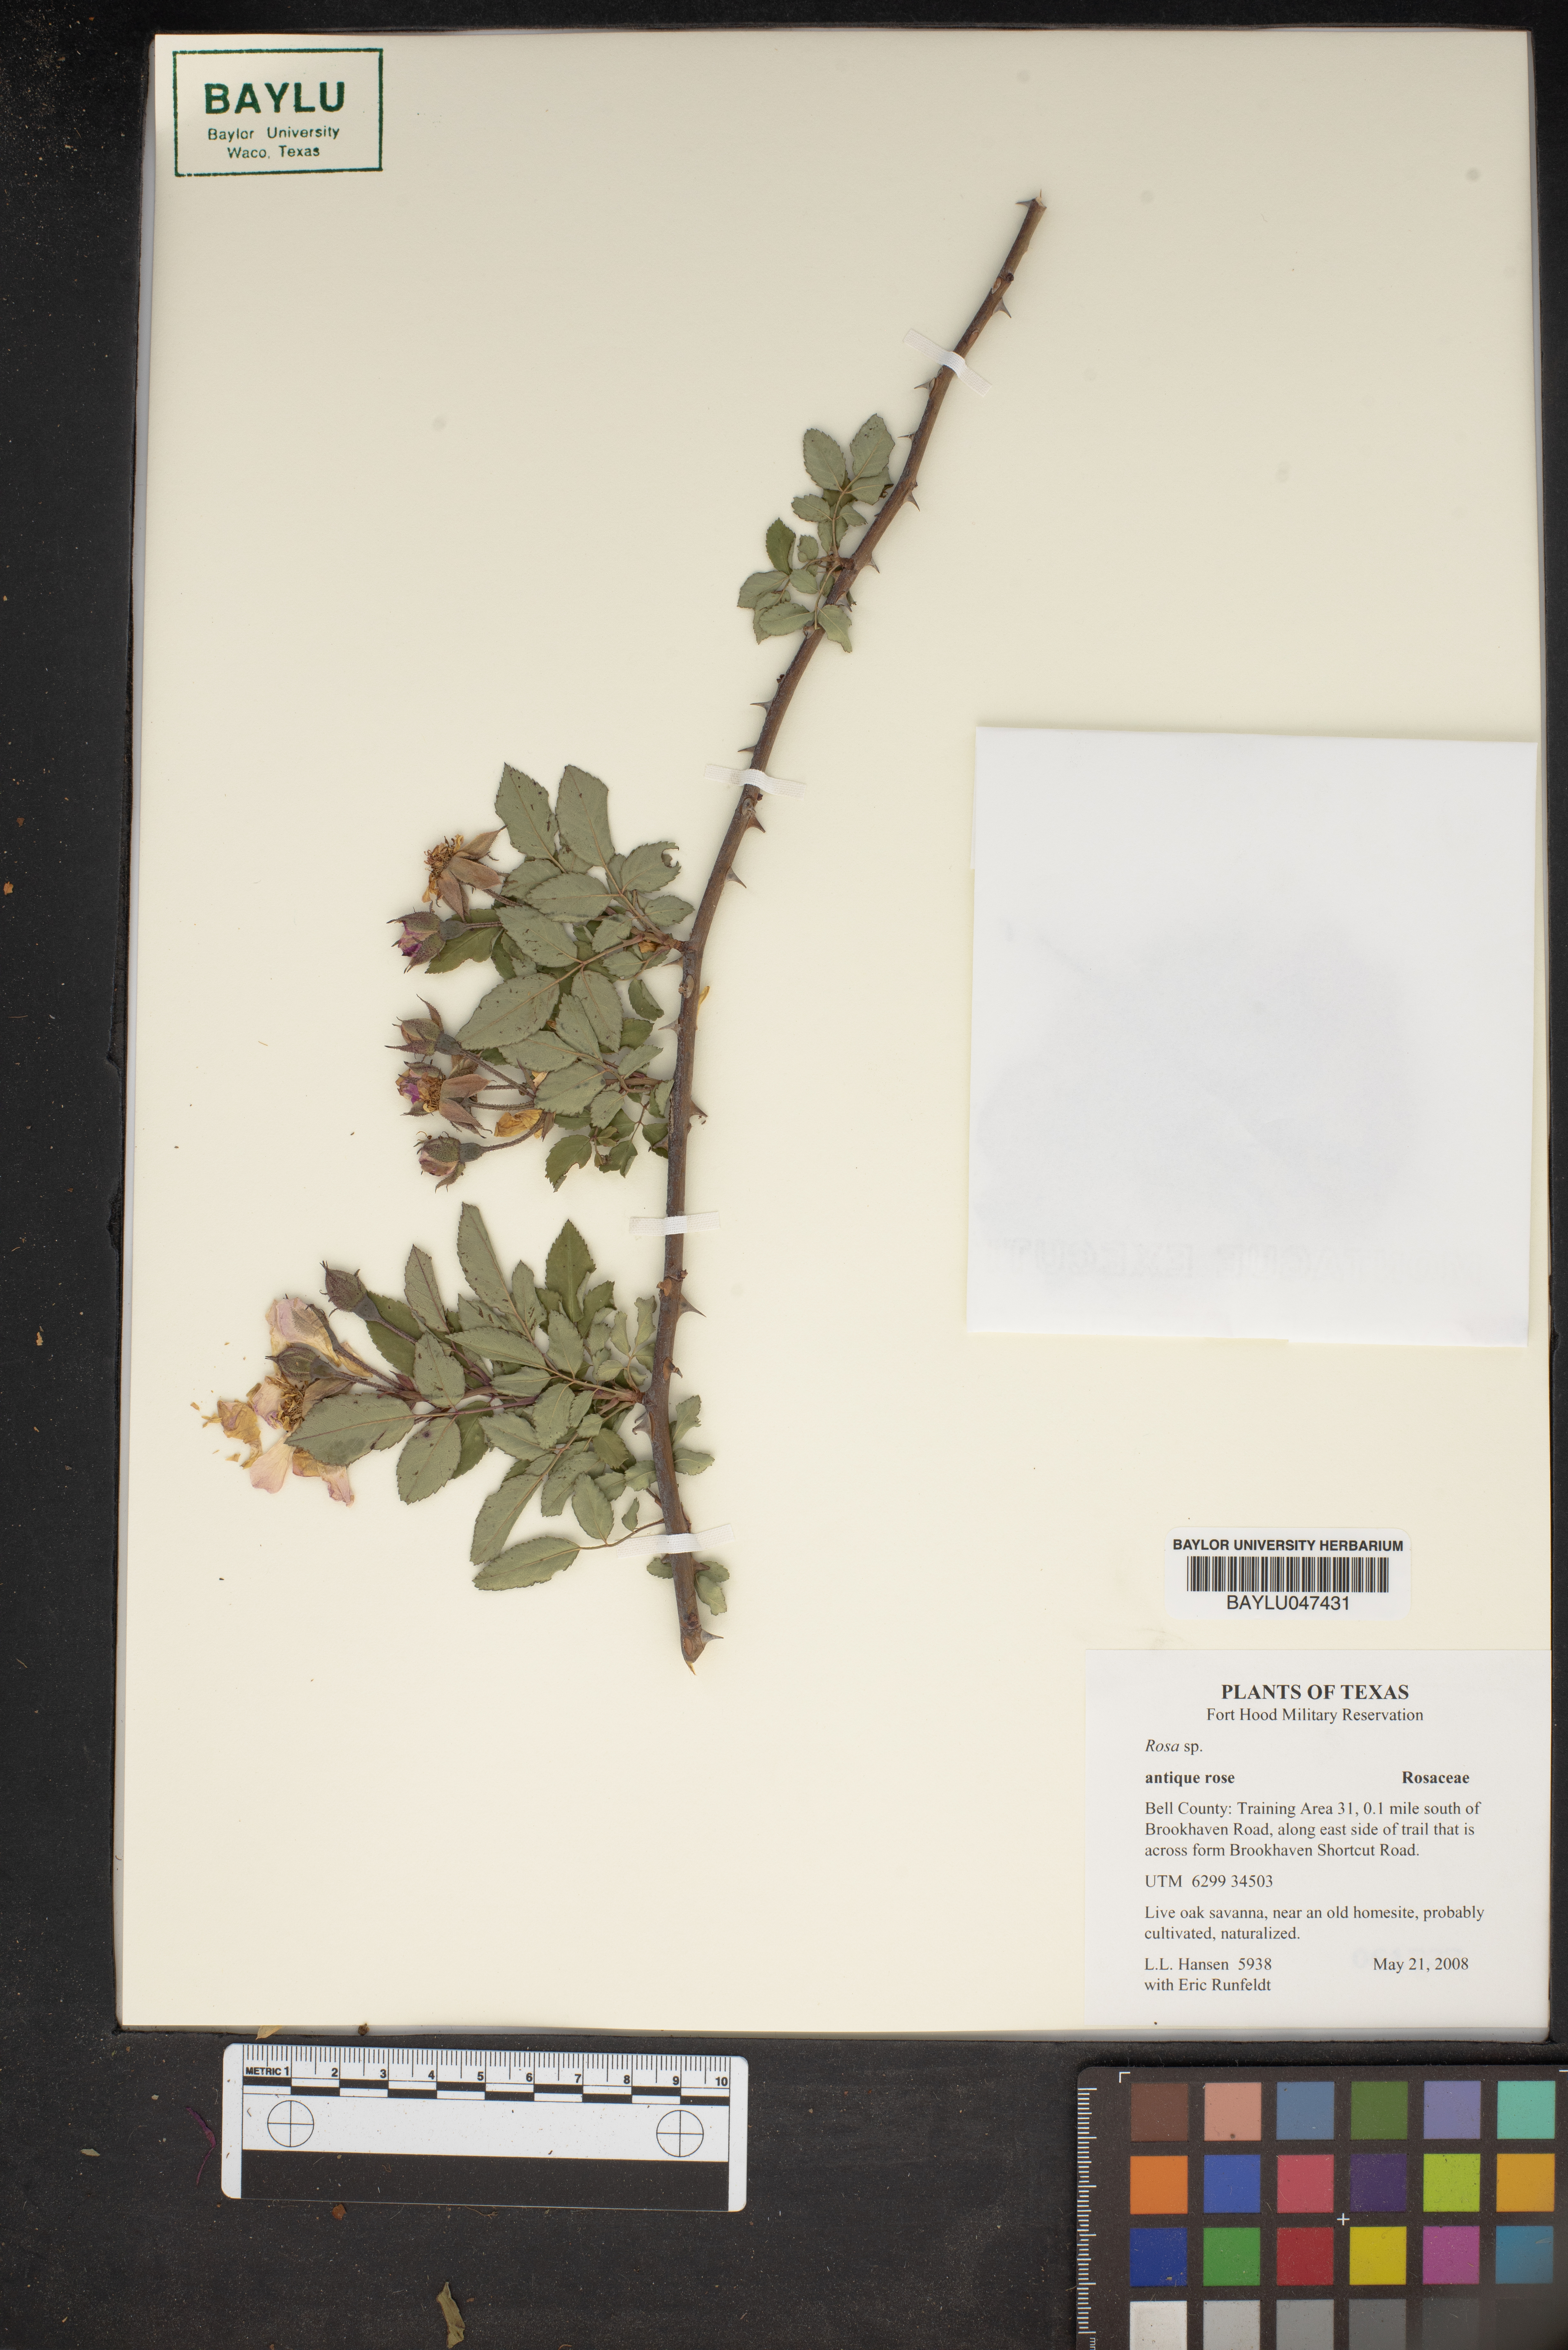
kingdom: Plantae
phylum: Tracheophyta
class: Magnoliopsida
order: Rosales
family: Rosaceae
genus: Rosa
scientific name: Rosa
